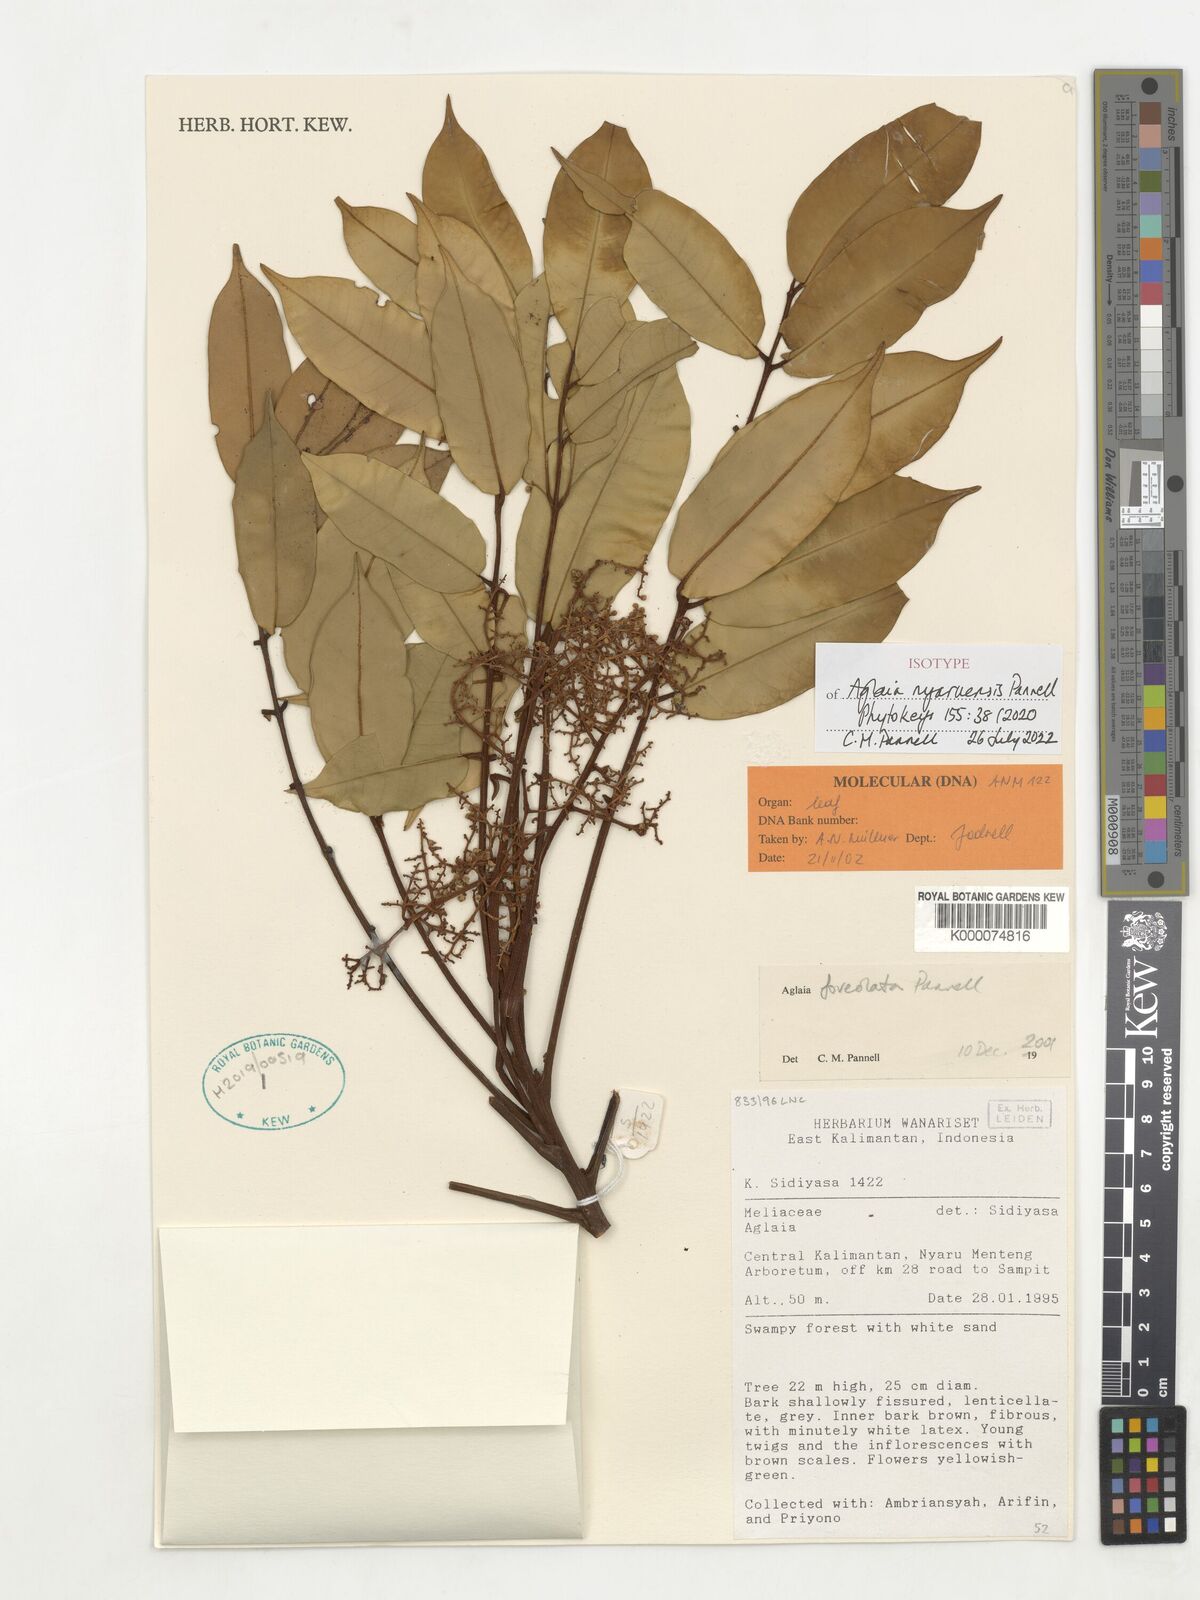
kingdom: Plantae
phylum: Tracheophyta
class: Magnoliopsida
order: Sapindales
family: Meliaceae
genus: Aglaia
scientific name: Aglaia
